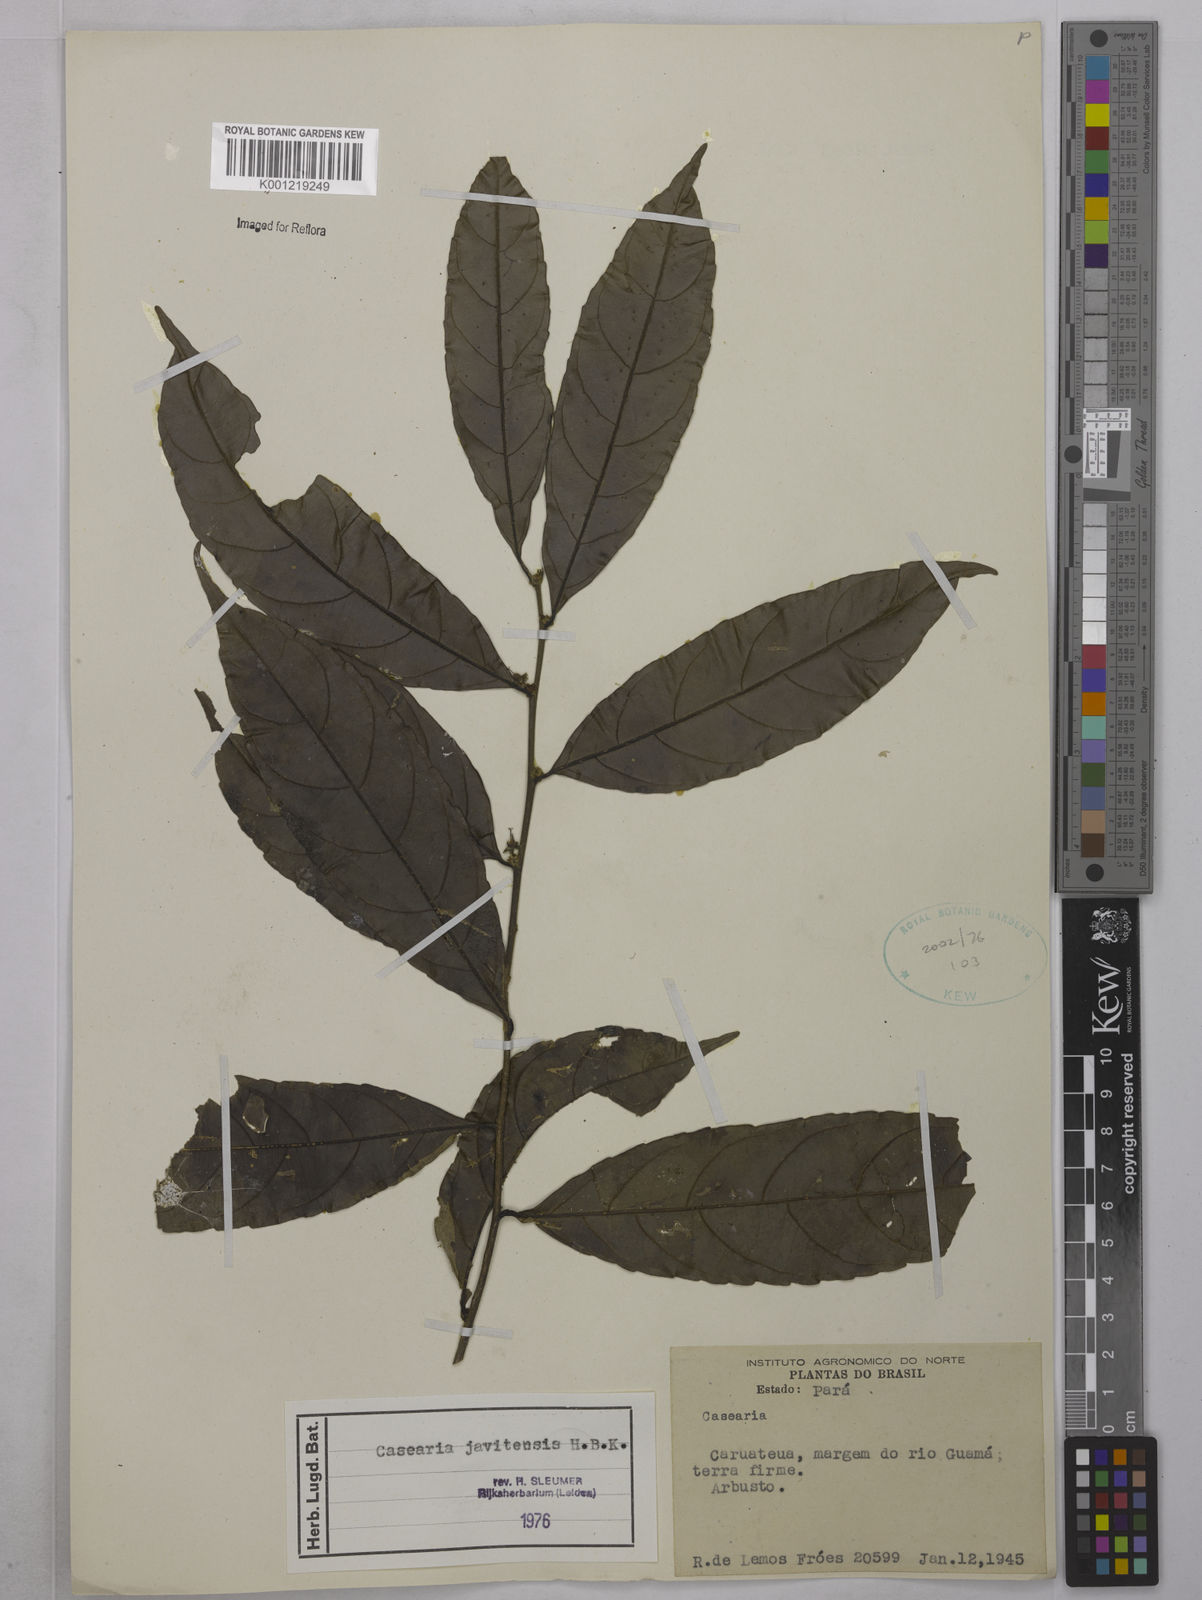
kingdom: Plantae
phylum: Tracheophyta
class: Magnoliopsida
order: Malpighiales
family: Salicaceae
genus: Piparea
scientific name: Piparea multiflora
